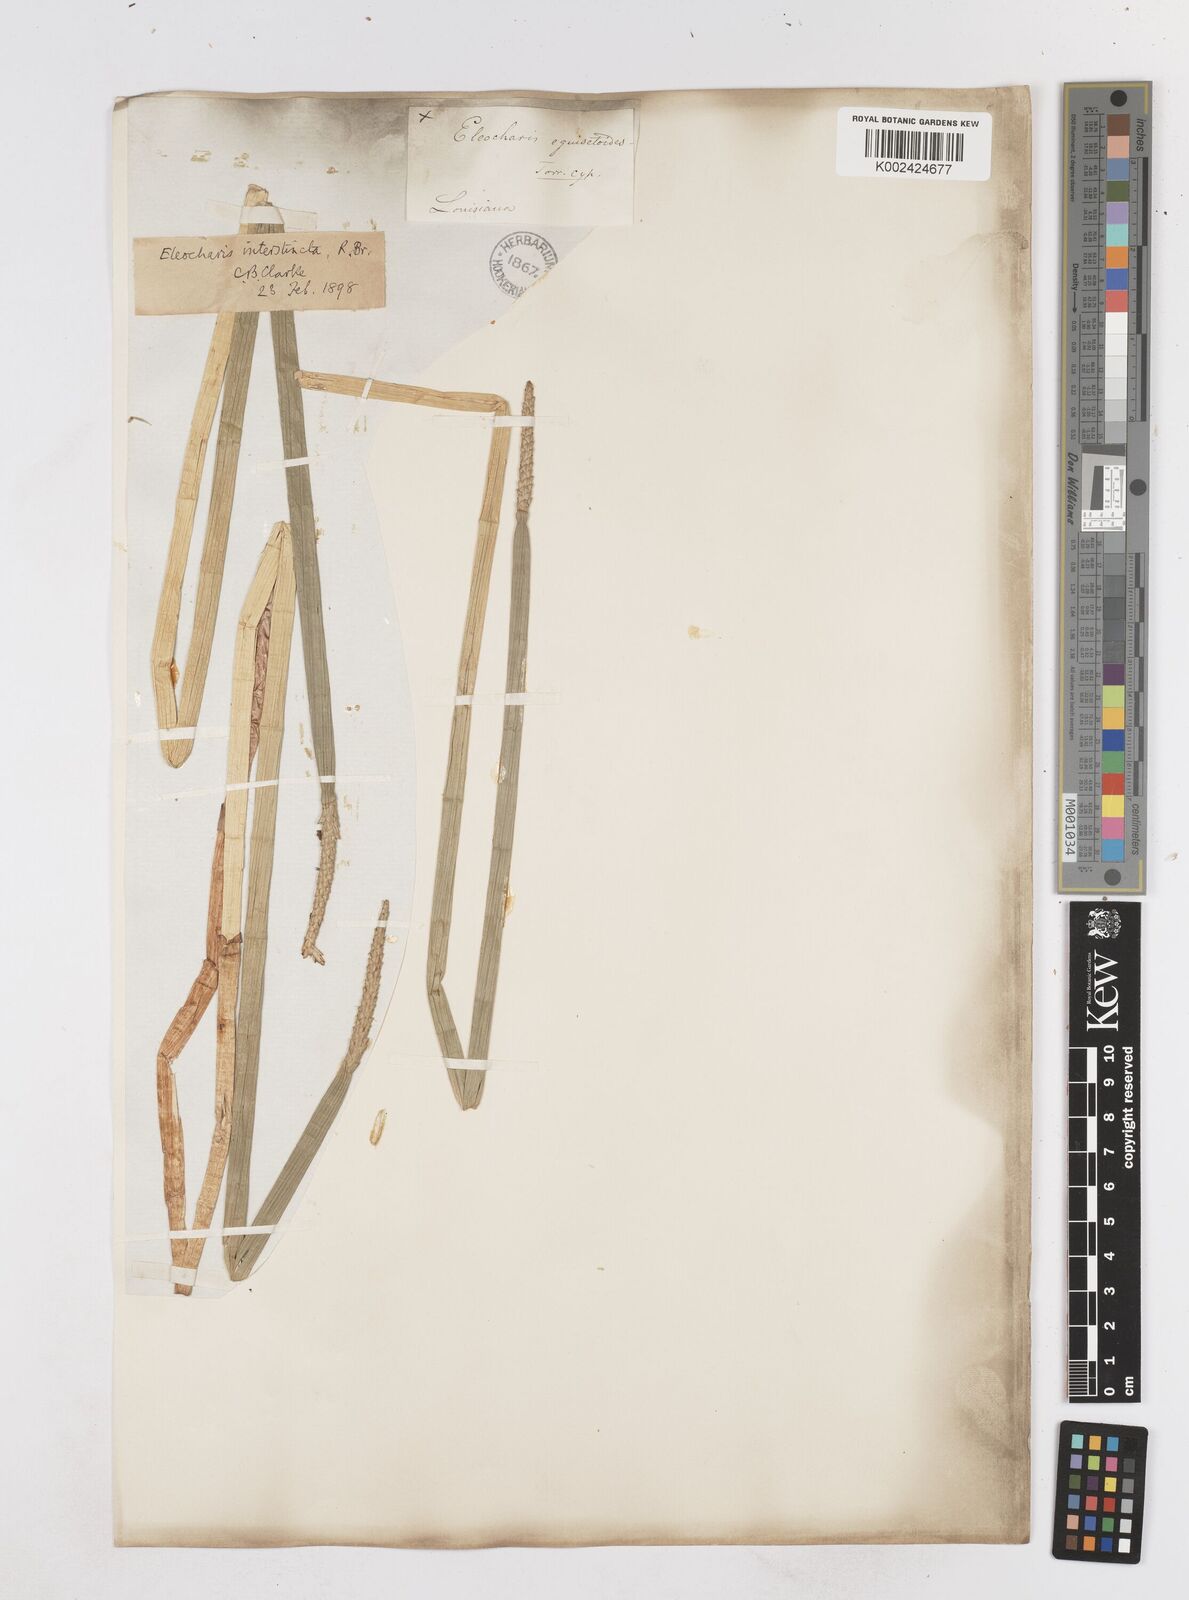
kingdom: Plantae
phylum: Tracheophyta
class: Liliopsida
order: Poales
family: Cyperaceae
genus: Eleocharis
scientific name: Eleocharis equisetoides
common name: Horsetail spike-rush
